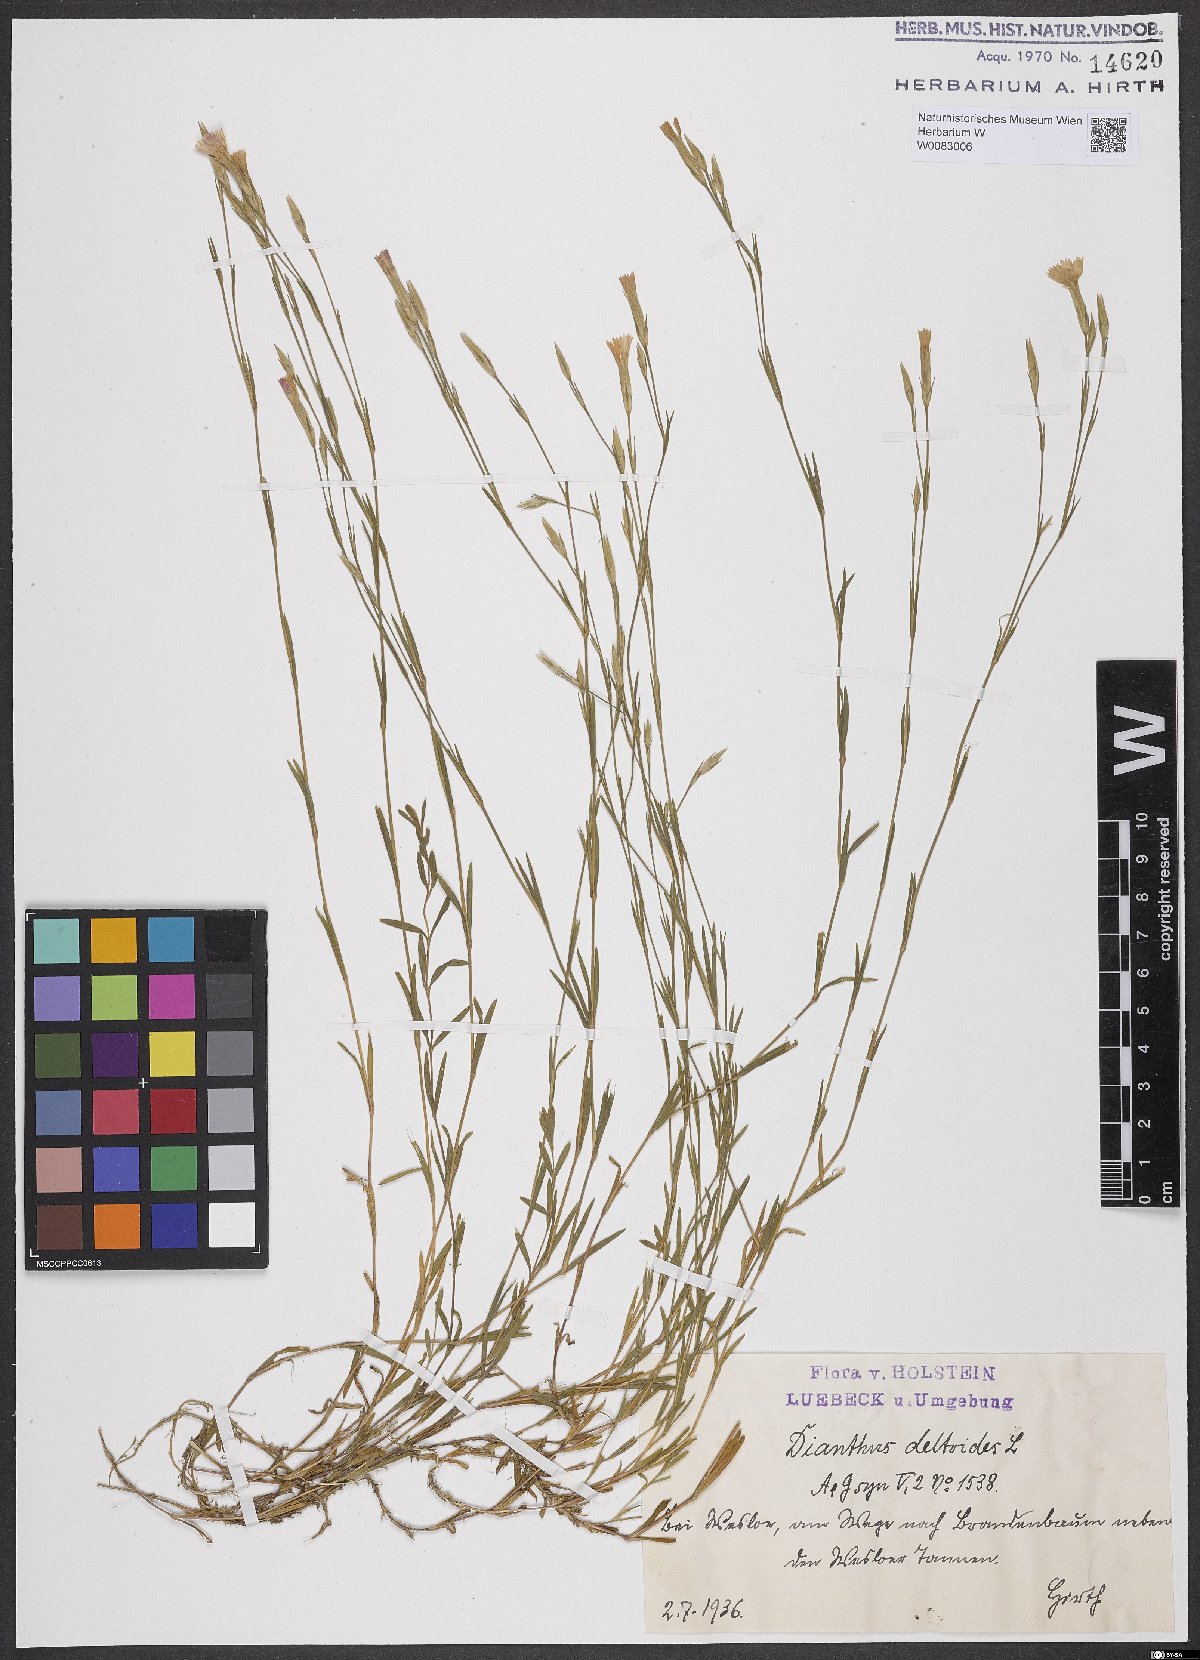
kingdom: Plantae
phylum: Tracheophyta
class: Magnoliopsida
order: Caryophyllales
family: Caryophyllaceae
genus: Dianthus
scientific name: Dianthus deltoides
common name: Maiden pink
